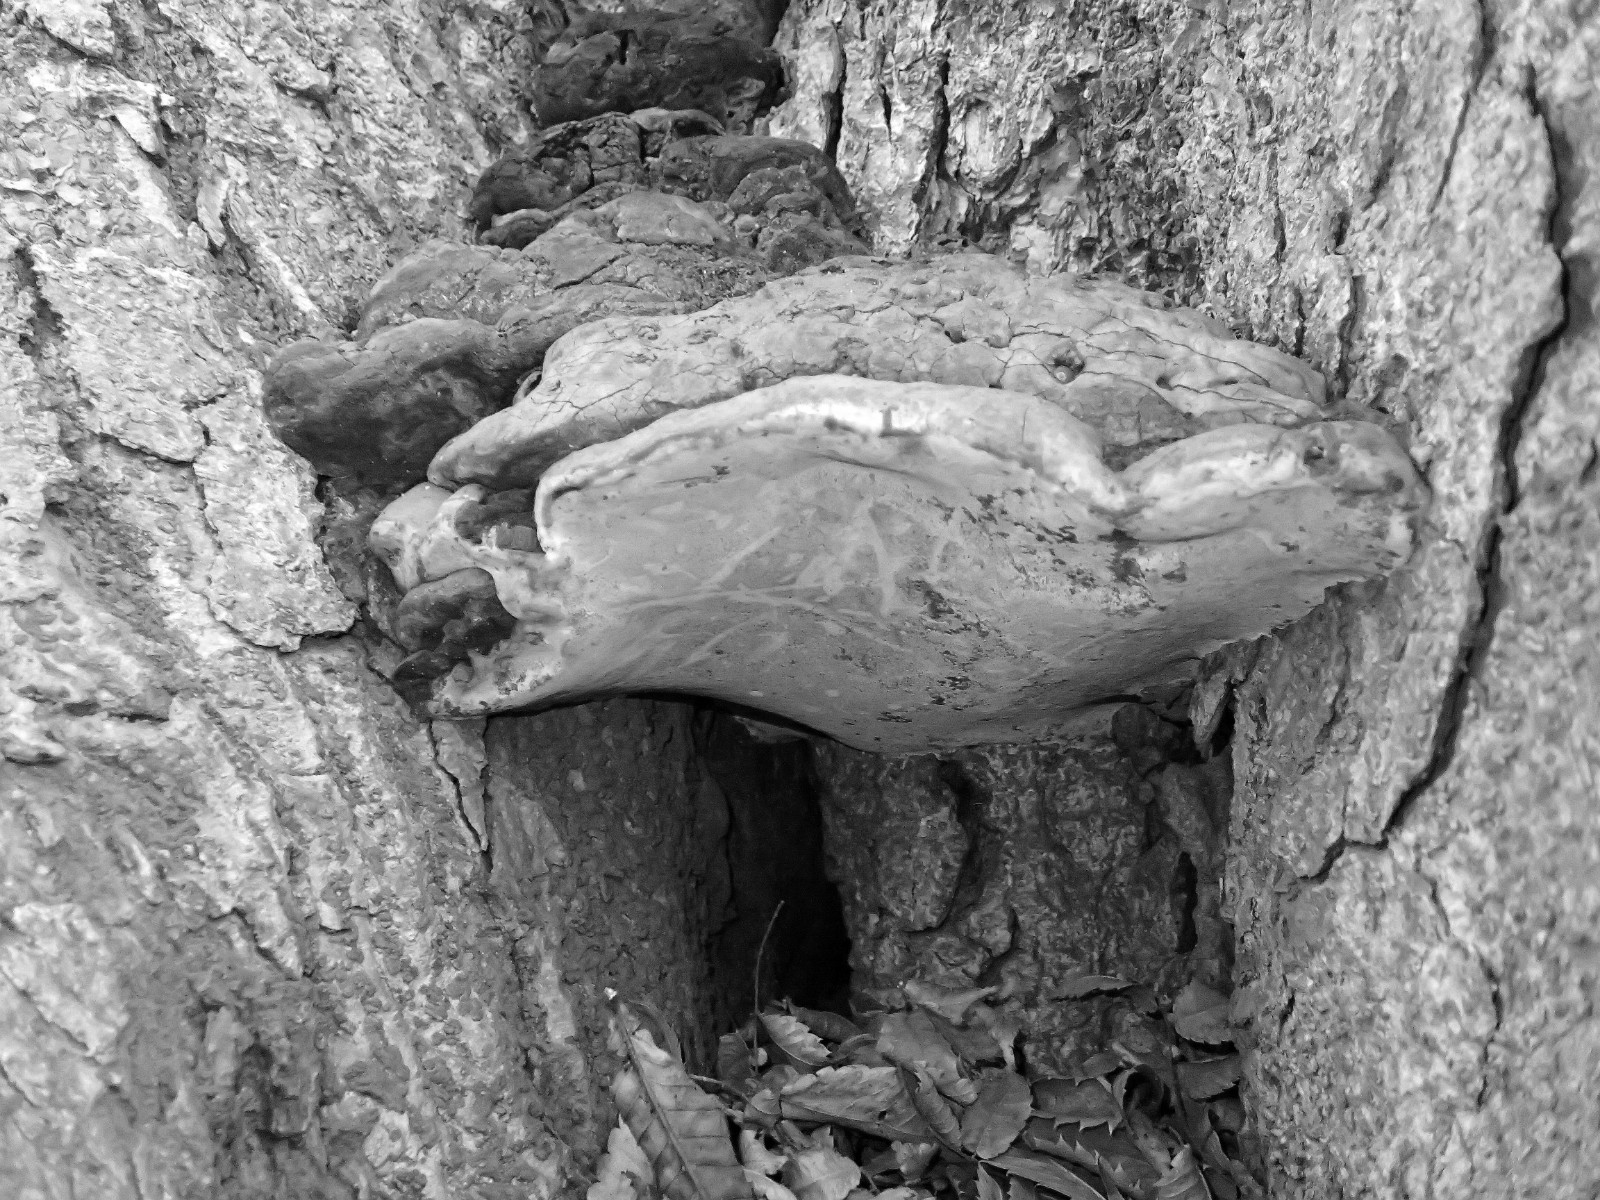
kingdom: Fungi
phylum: Basidiomycota
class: Agaricomycetes
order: Polyporales
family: Polyporaceae
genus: Ganoderma
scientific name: Ganoderma adspersum
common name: grov lakporesvamp
